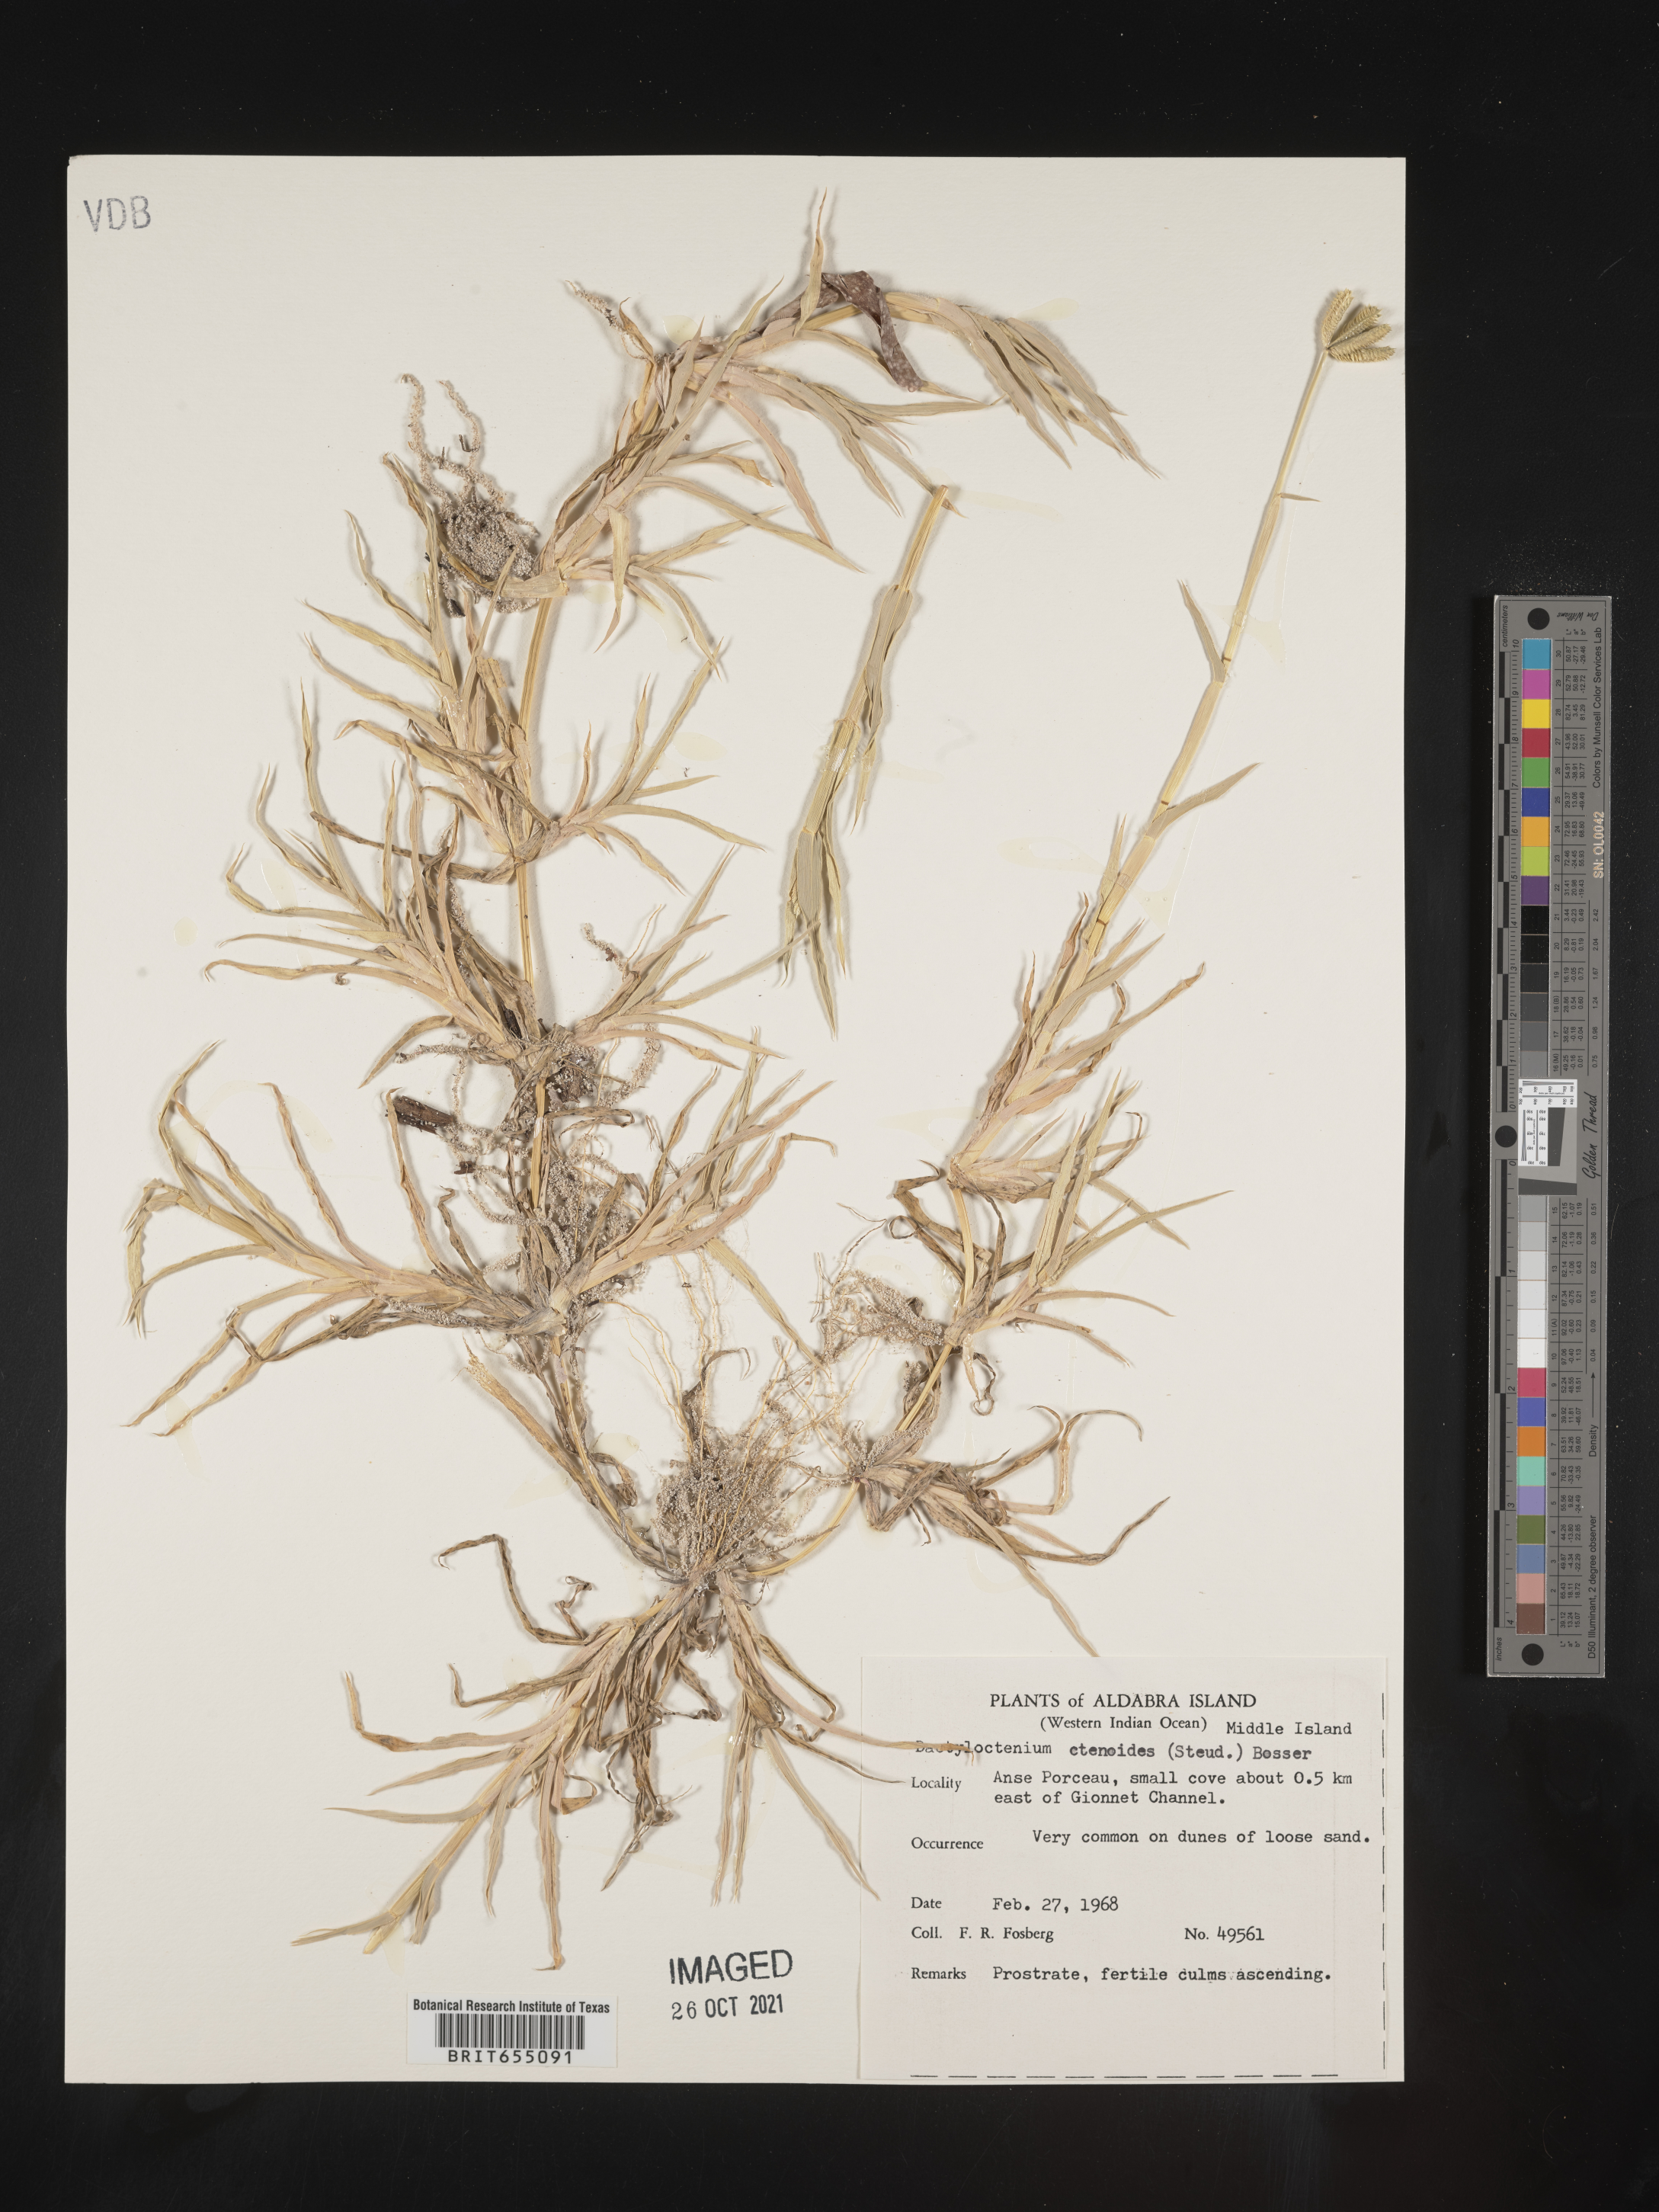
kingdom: Plantae
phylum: Tracheophyta
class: Liliopsida
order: Poales
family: Poaceae
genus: Dactyloctenium
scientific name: Dactyloctenium
